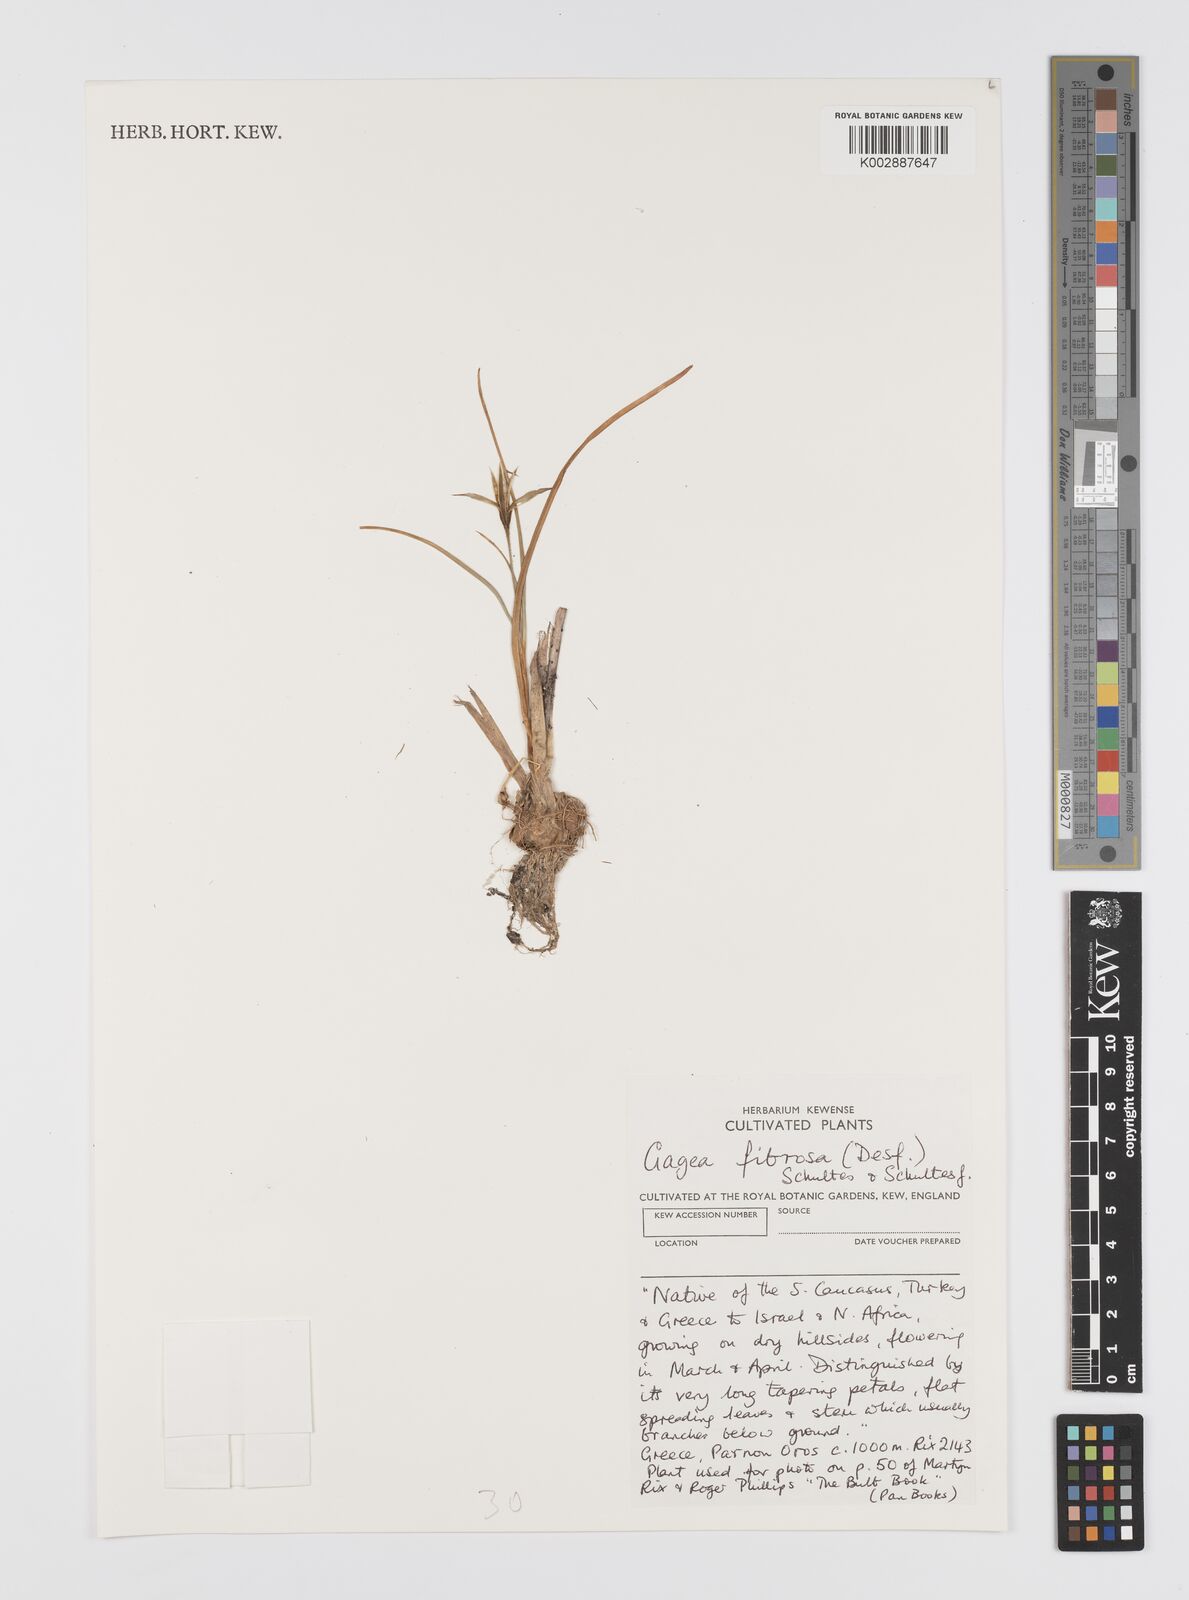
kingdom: Plantae
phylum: Tracheophyta
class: Liliopsida
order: Liliales
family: Liliaceae
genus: Gagea
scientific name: Gagea fibrosa
